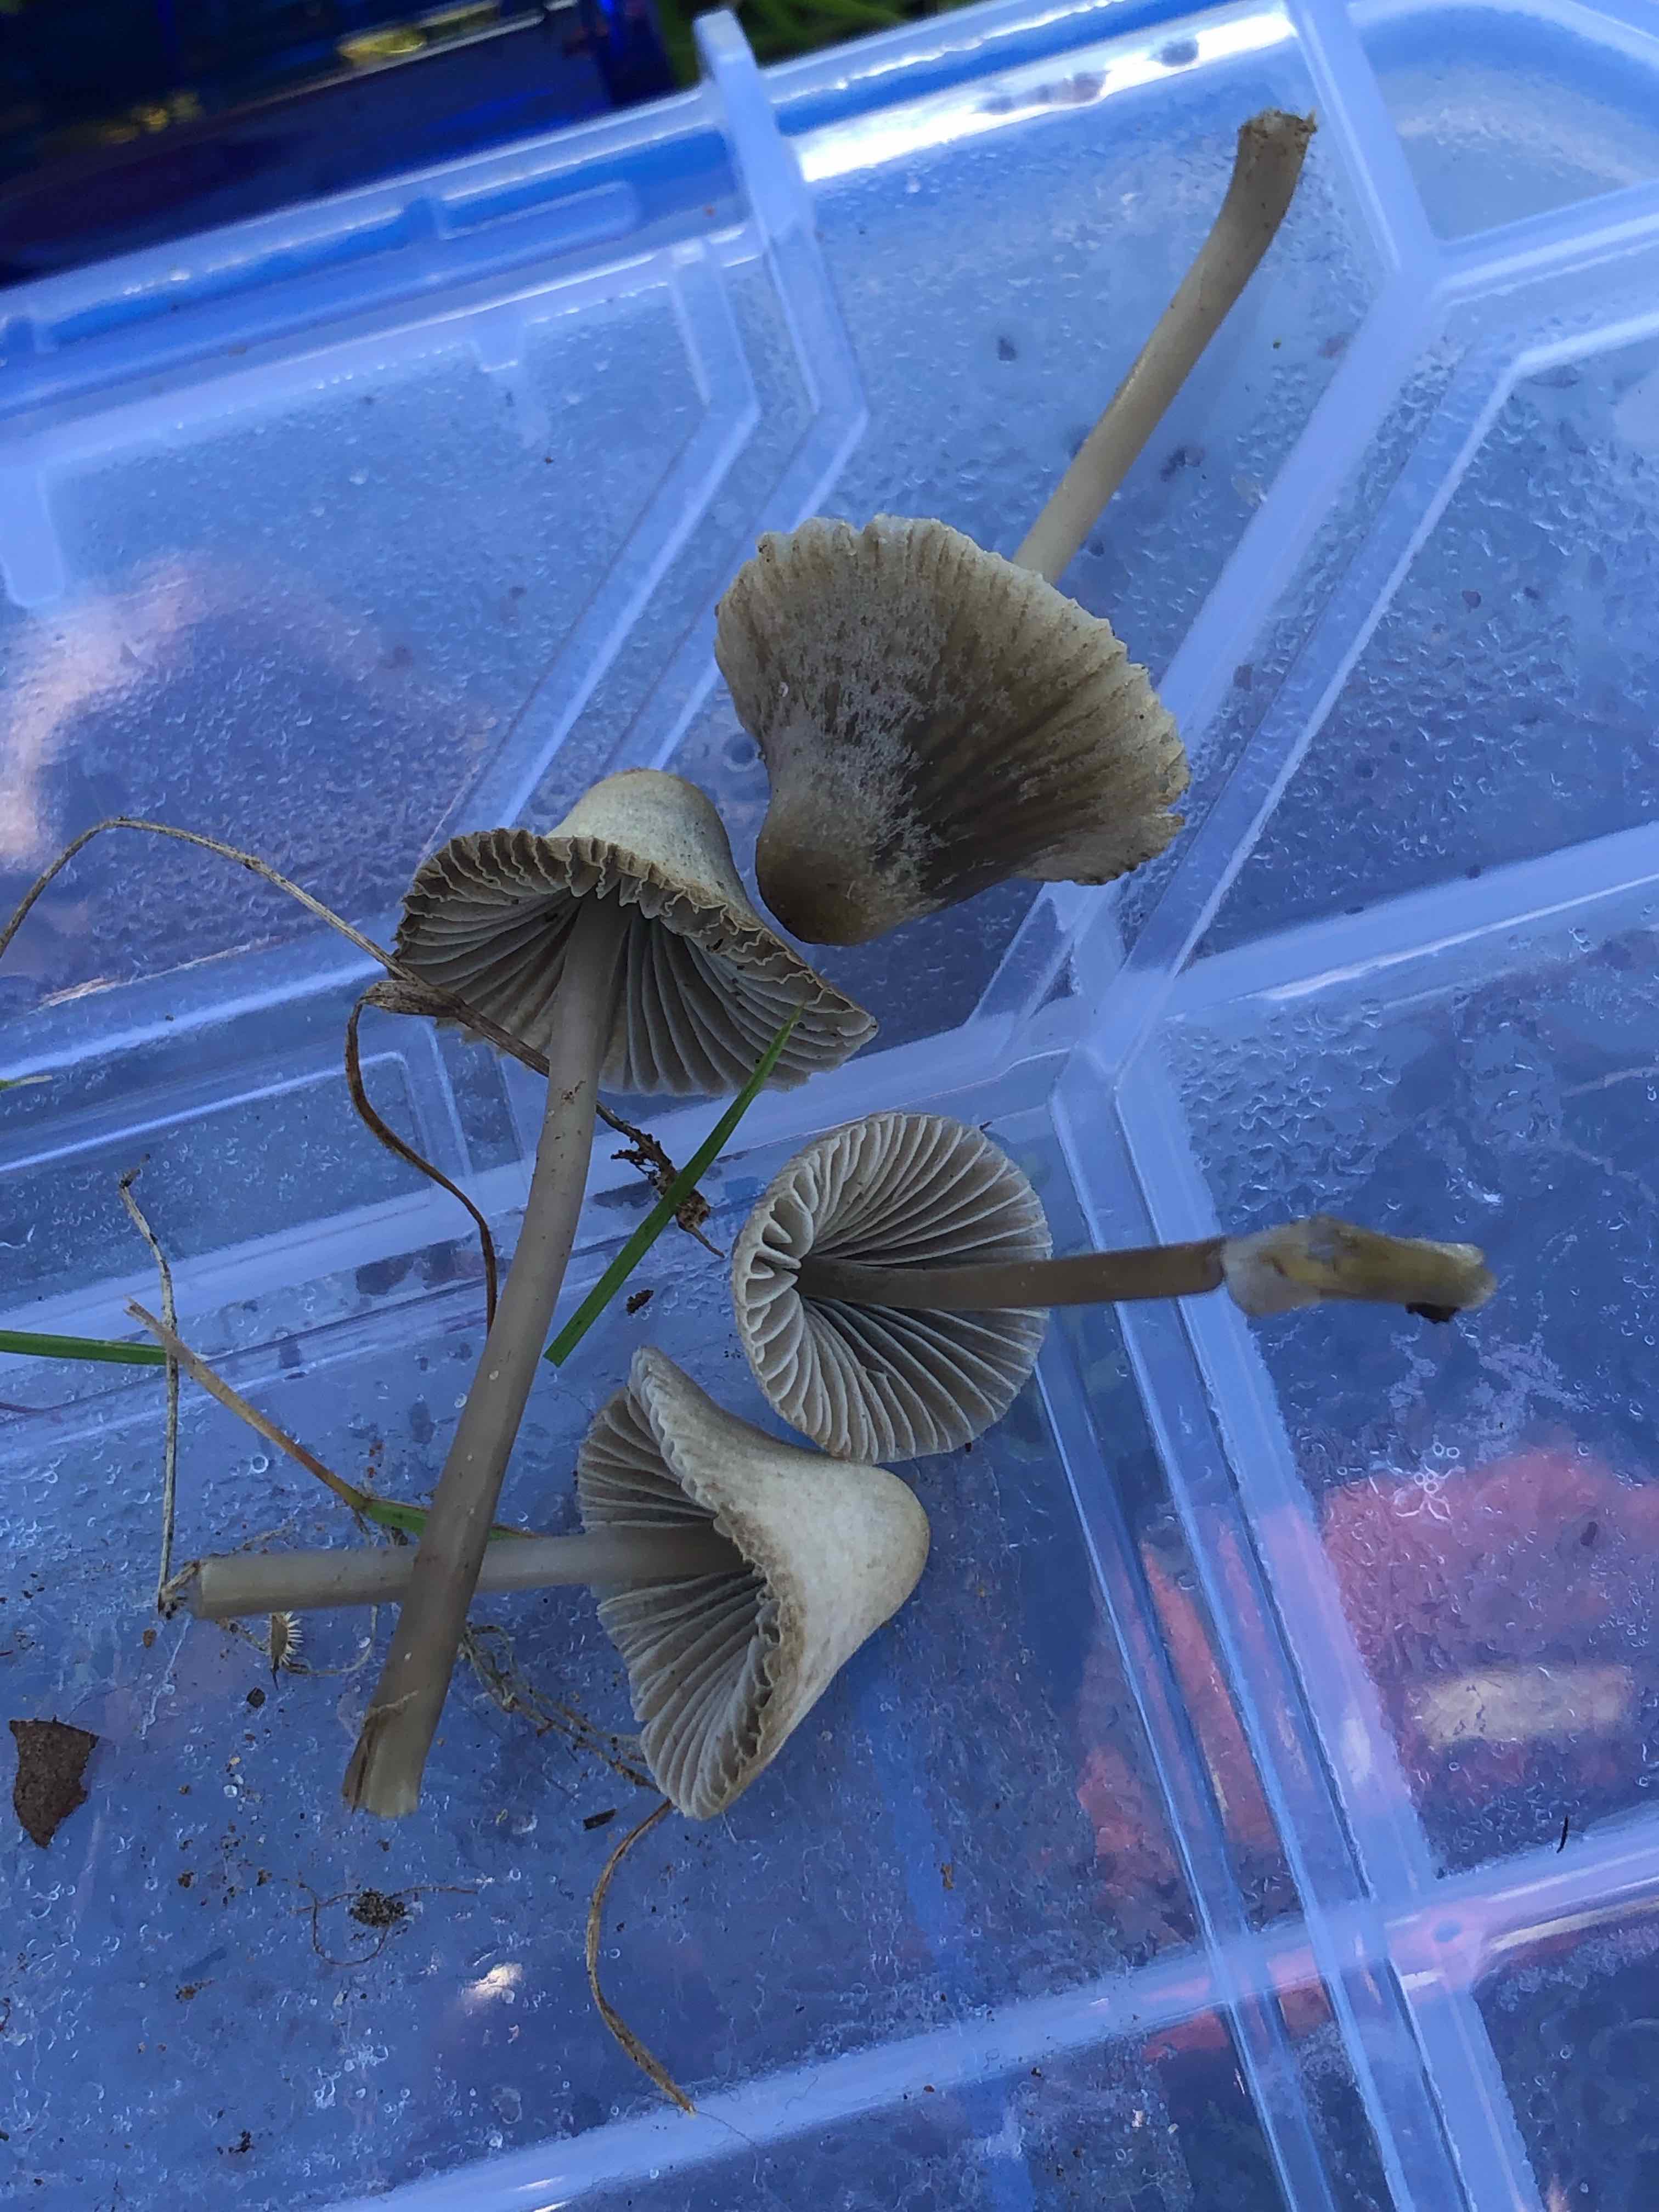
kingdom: Fungi
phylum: Basidiomycota
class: Agaricomycetes
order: Agaricales
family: Mycenaceae
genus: Mycena
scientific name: Mycena aetites
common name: plæne-huesvamp
